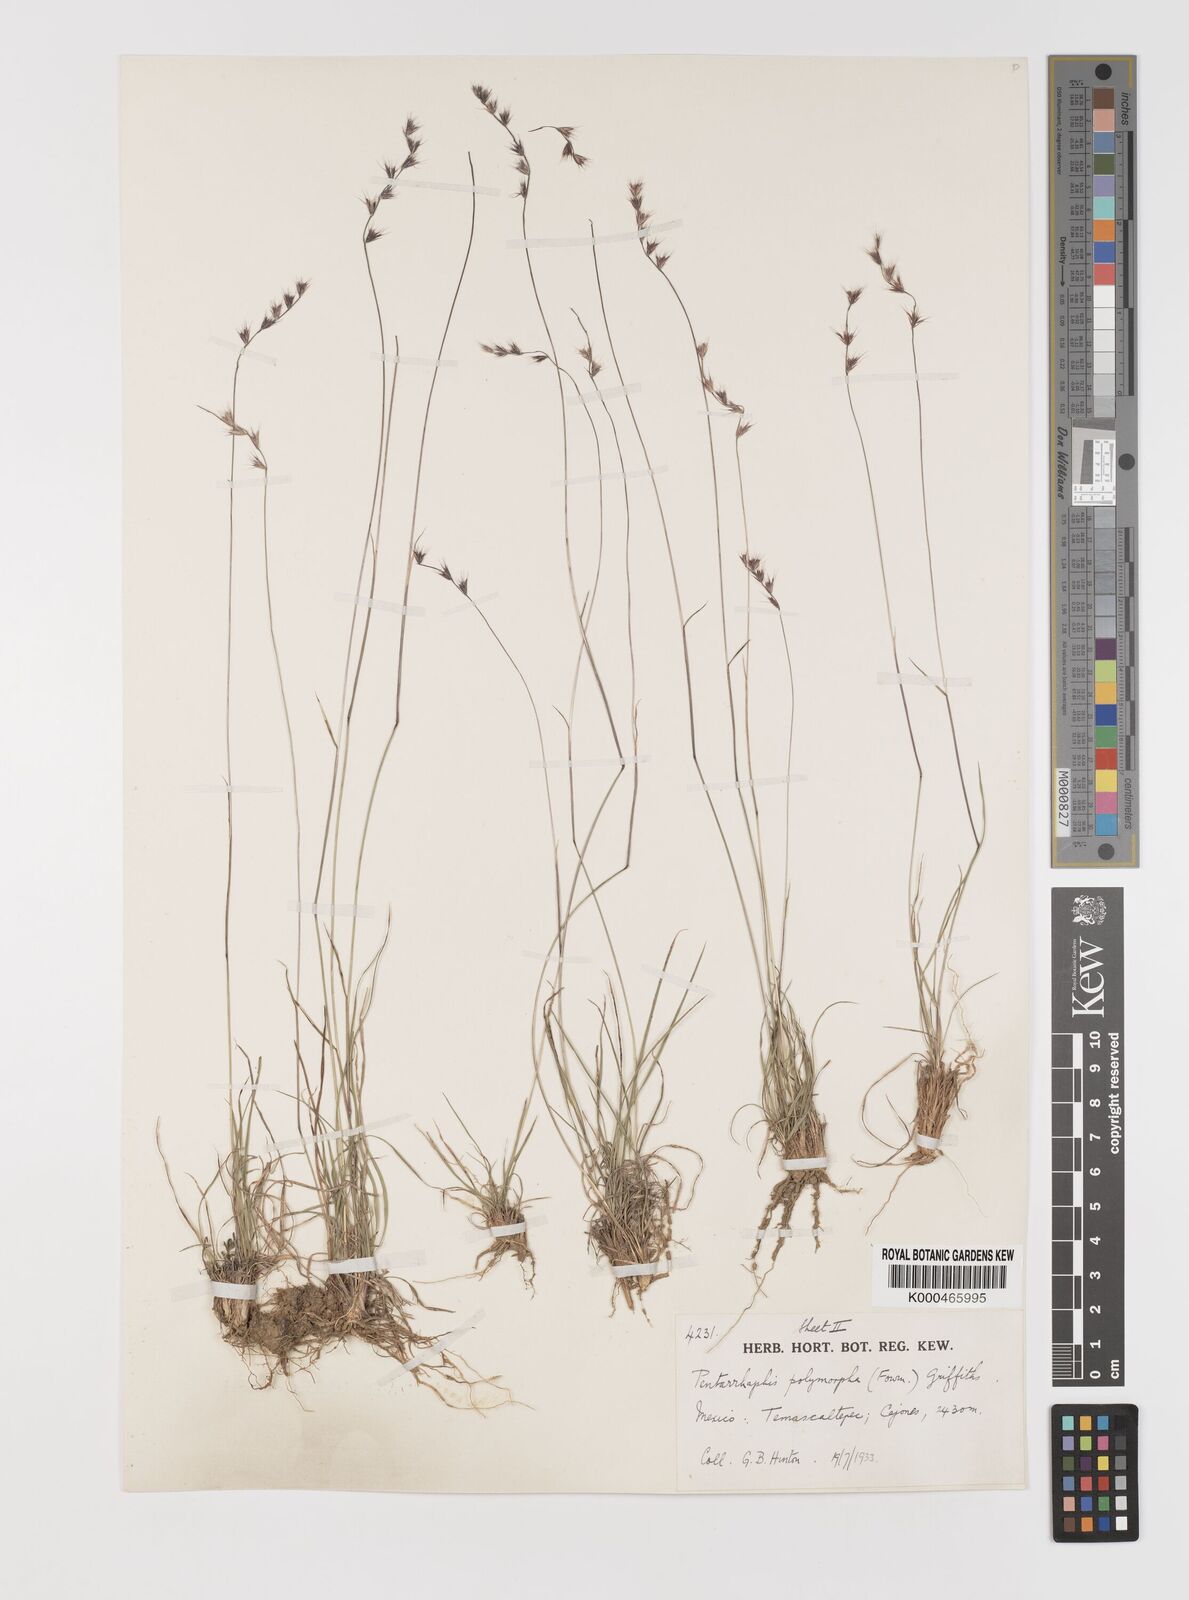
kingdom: Plantae
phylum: Tracheophyta
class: Liliopsida
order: Poales
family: Poaceae
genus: Bouteloua
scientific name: Bouteloua polymorpha
